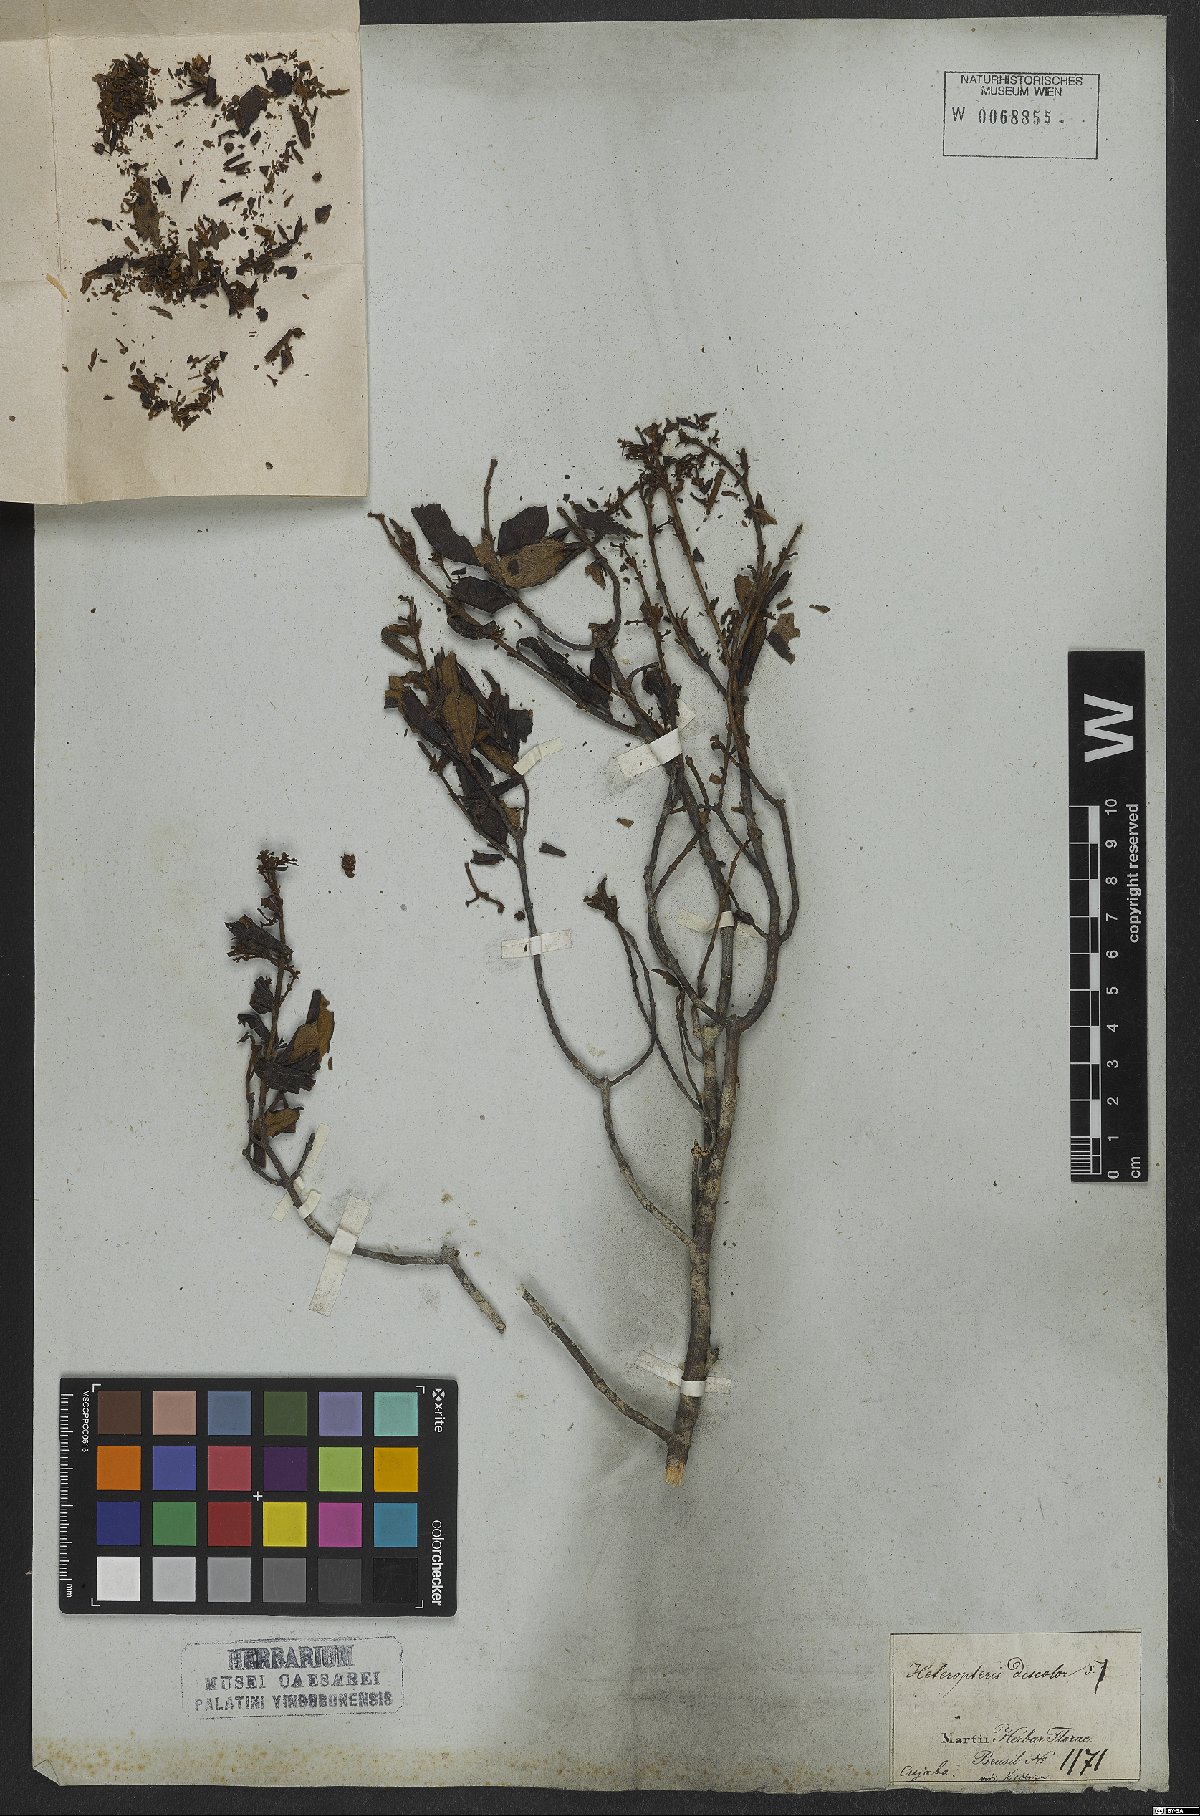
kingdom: Plantae
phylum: Tracheophyta
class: Magnoliopsida
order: Malpighiales
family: Malpighiaceae
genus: Heteropterys
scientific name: Heteropterys discolor
